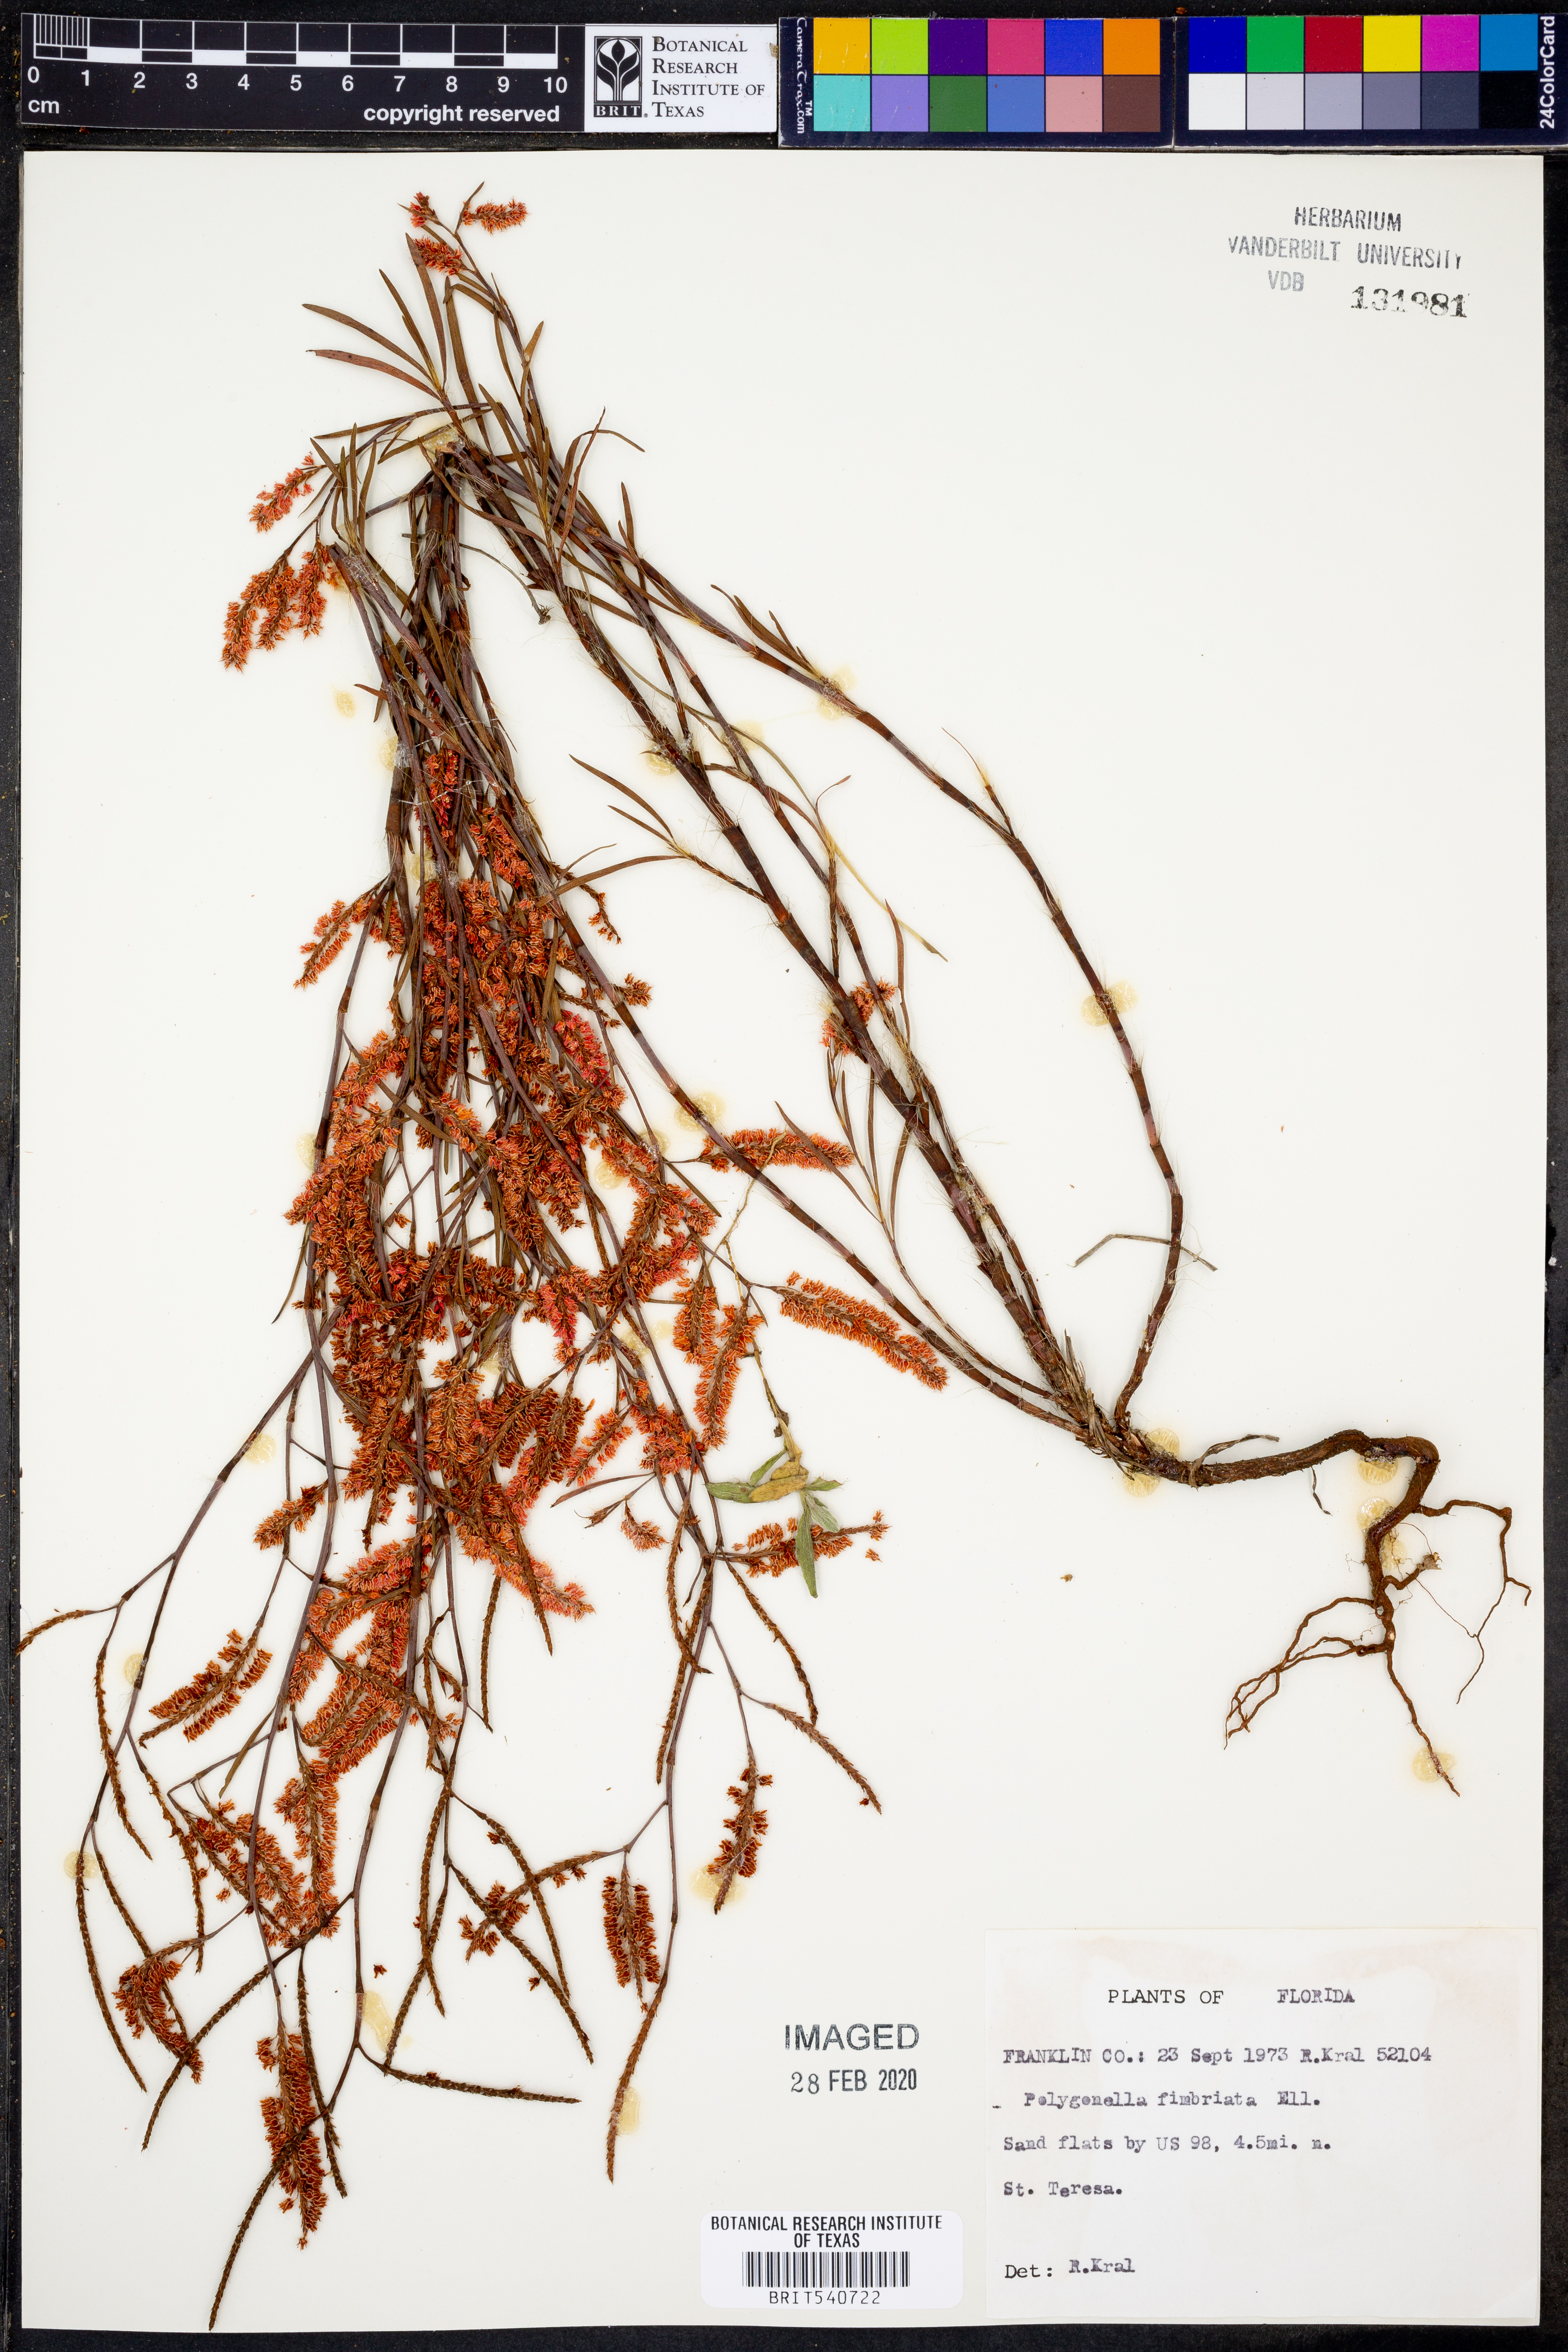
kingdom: Plantae
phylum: Tracheophyta
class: Magnoliopsida
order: Caryophyllales
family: Polygonaceae
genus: Polygonella
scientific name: Polygonella fimbriata
